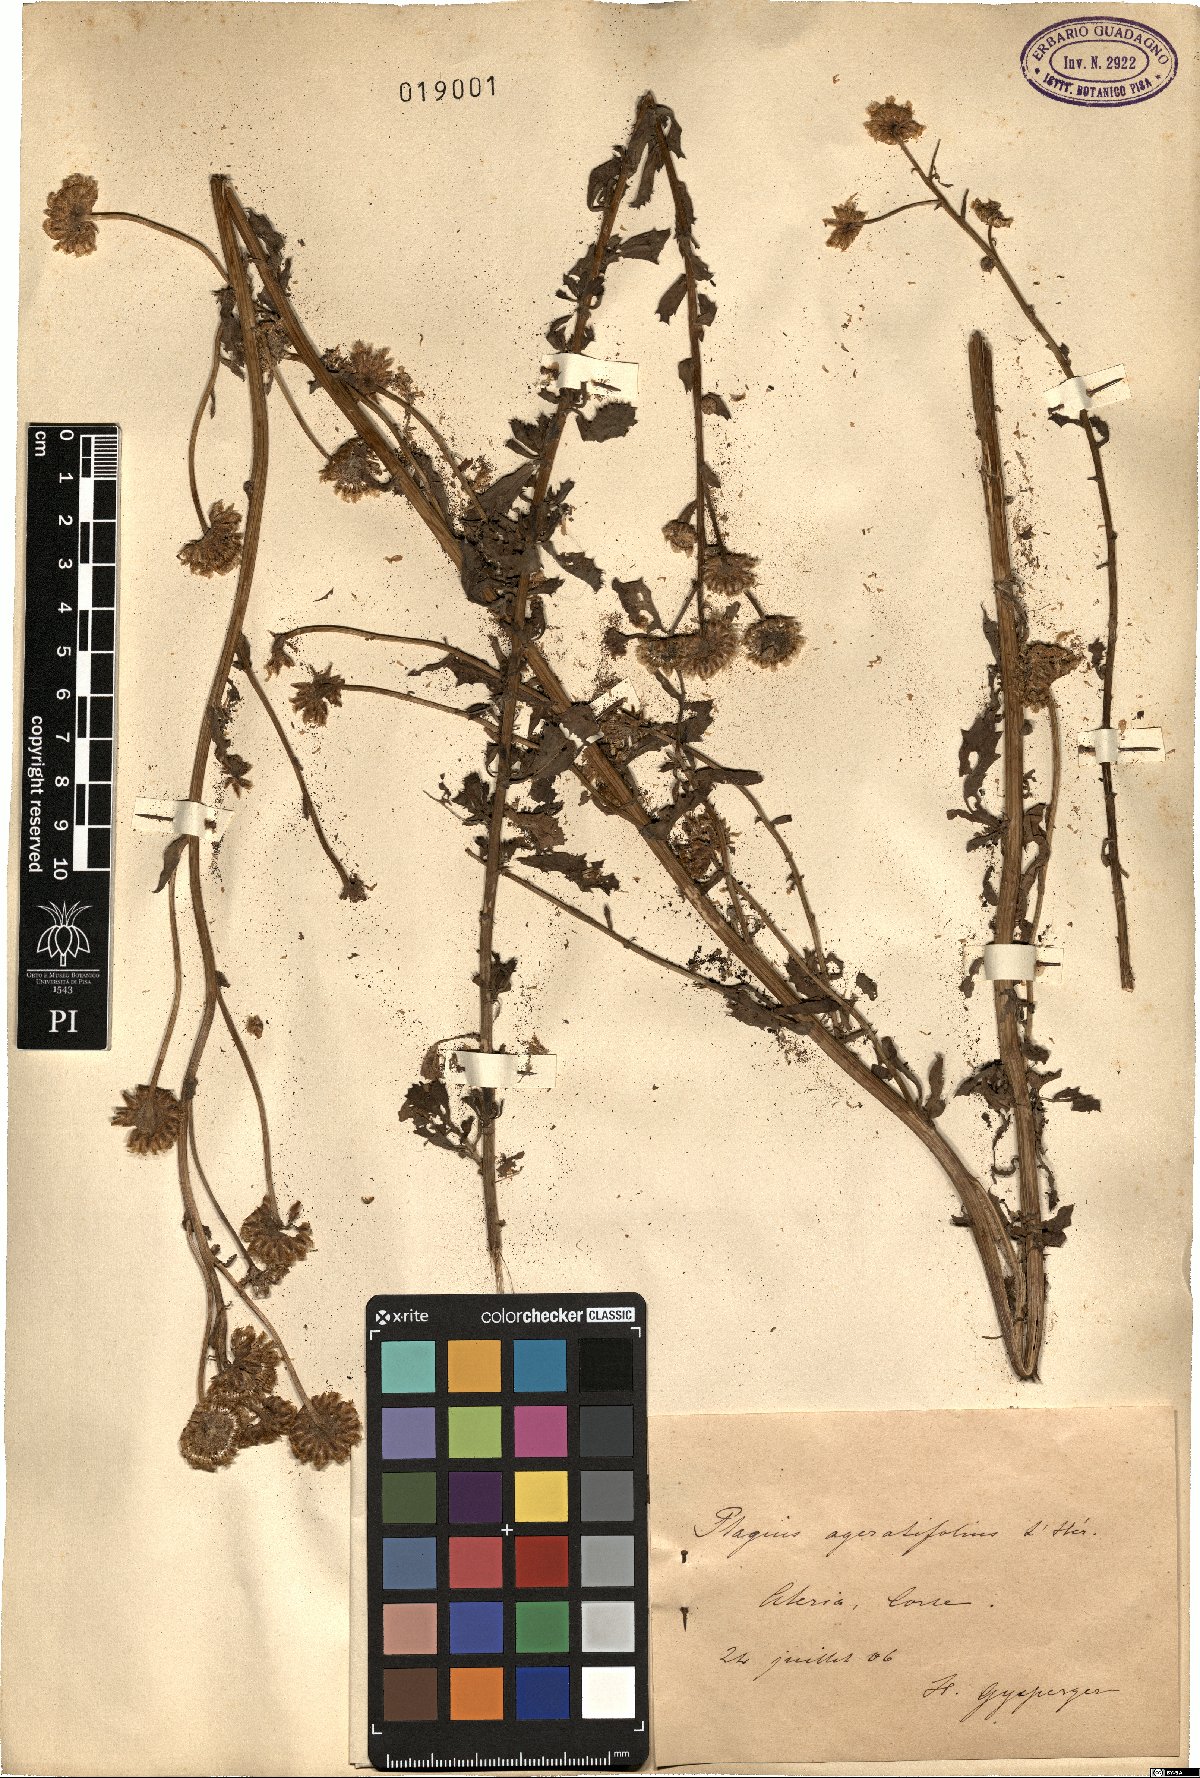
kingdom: Plantae
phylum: Tracheophyta
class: Magnoliopsida
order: Asterales
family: Asteraceae
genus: Plagius
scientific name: Plagius flosculosus
